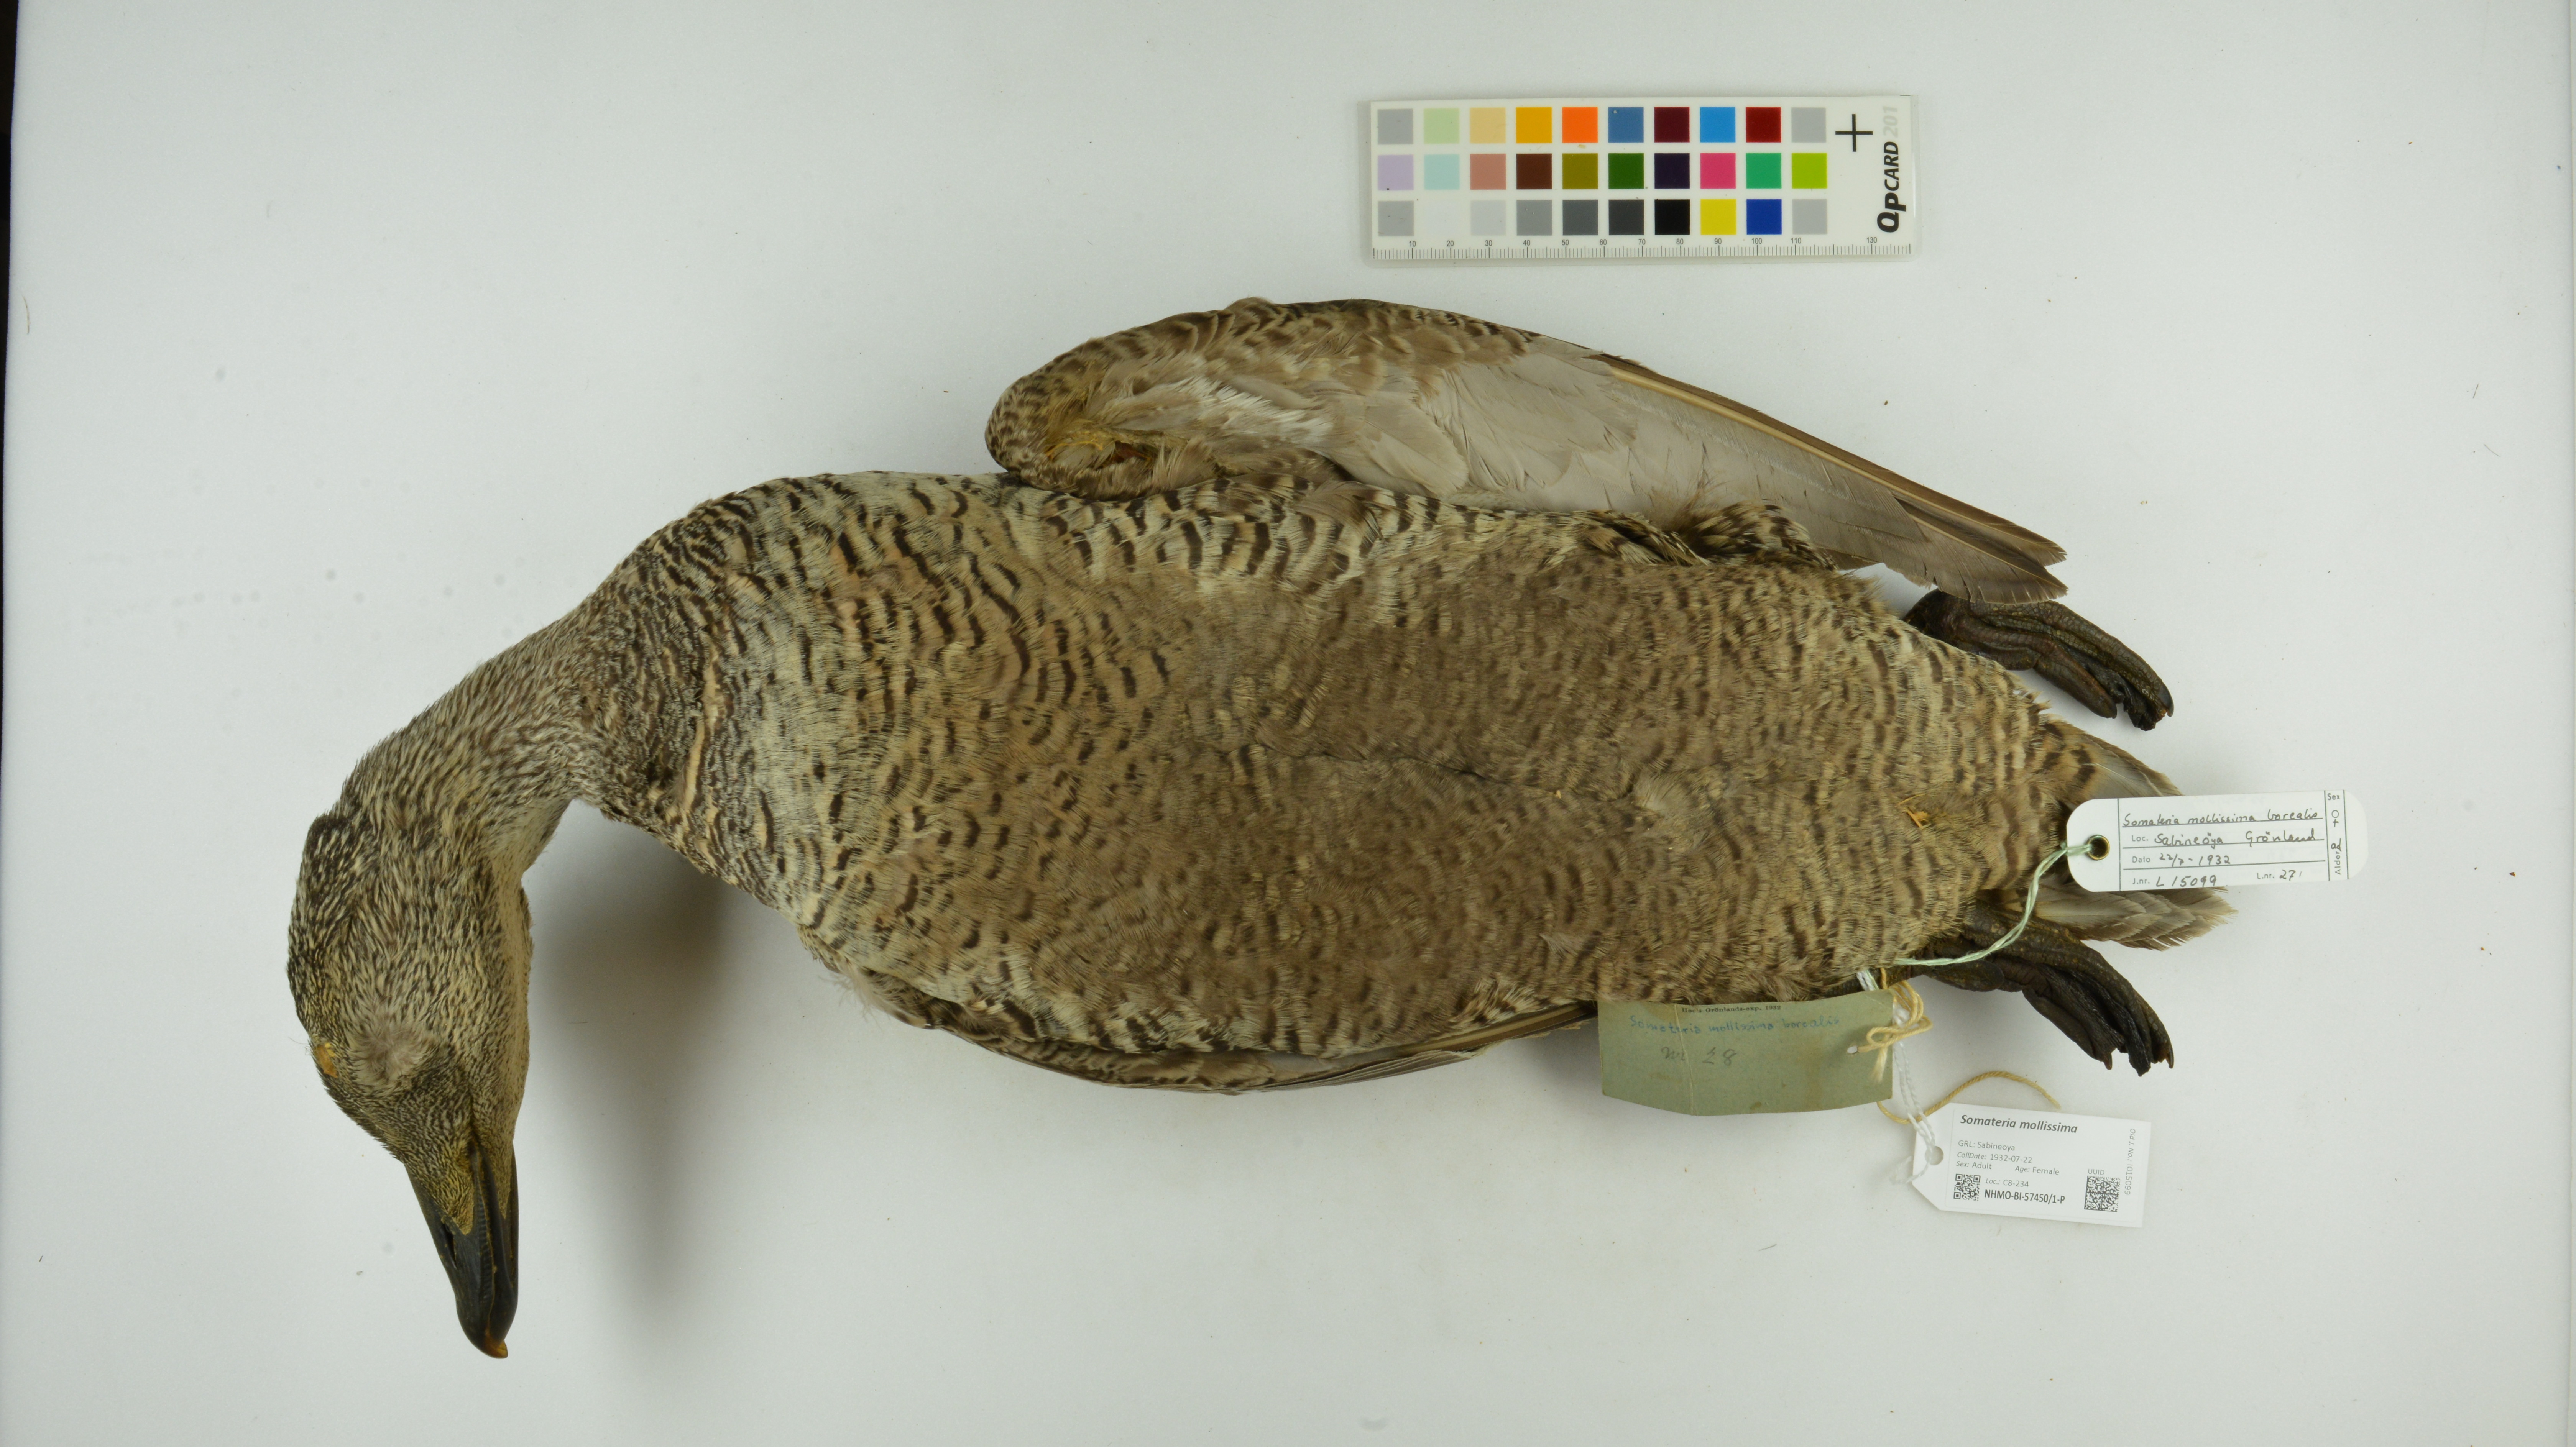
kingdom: Animalia
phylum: Chordata
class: Aves
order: Anseriformes
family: Anatidae
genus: Somateria
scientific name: Somateria mollissima
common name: Common eider
